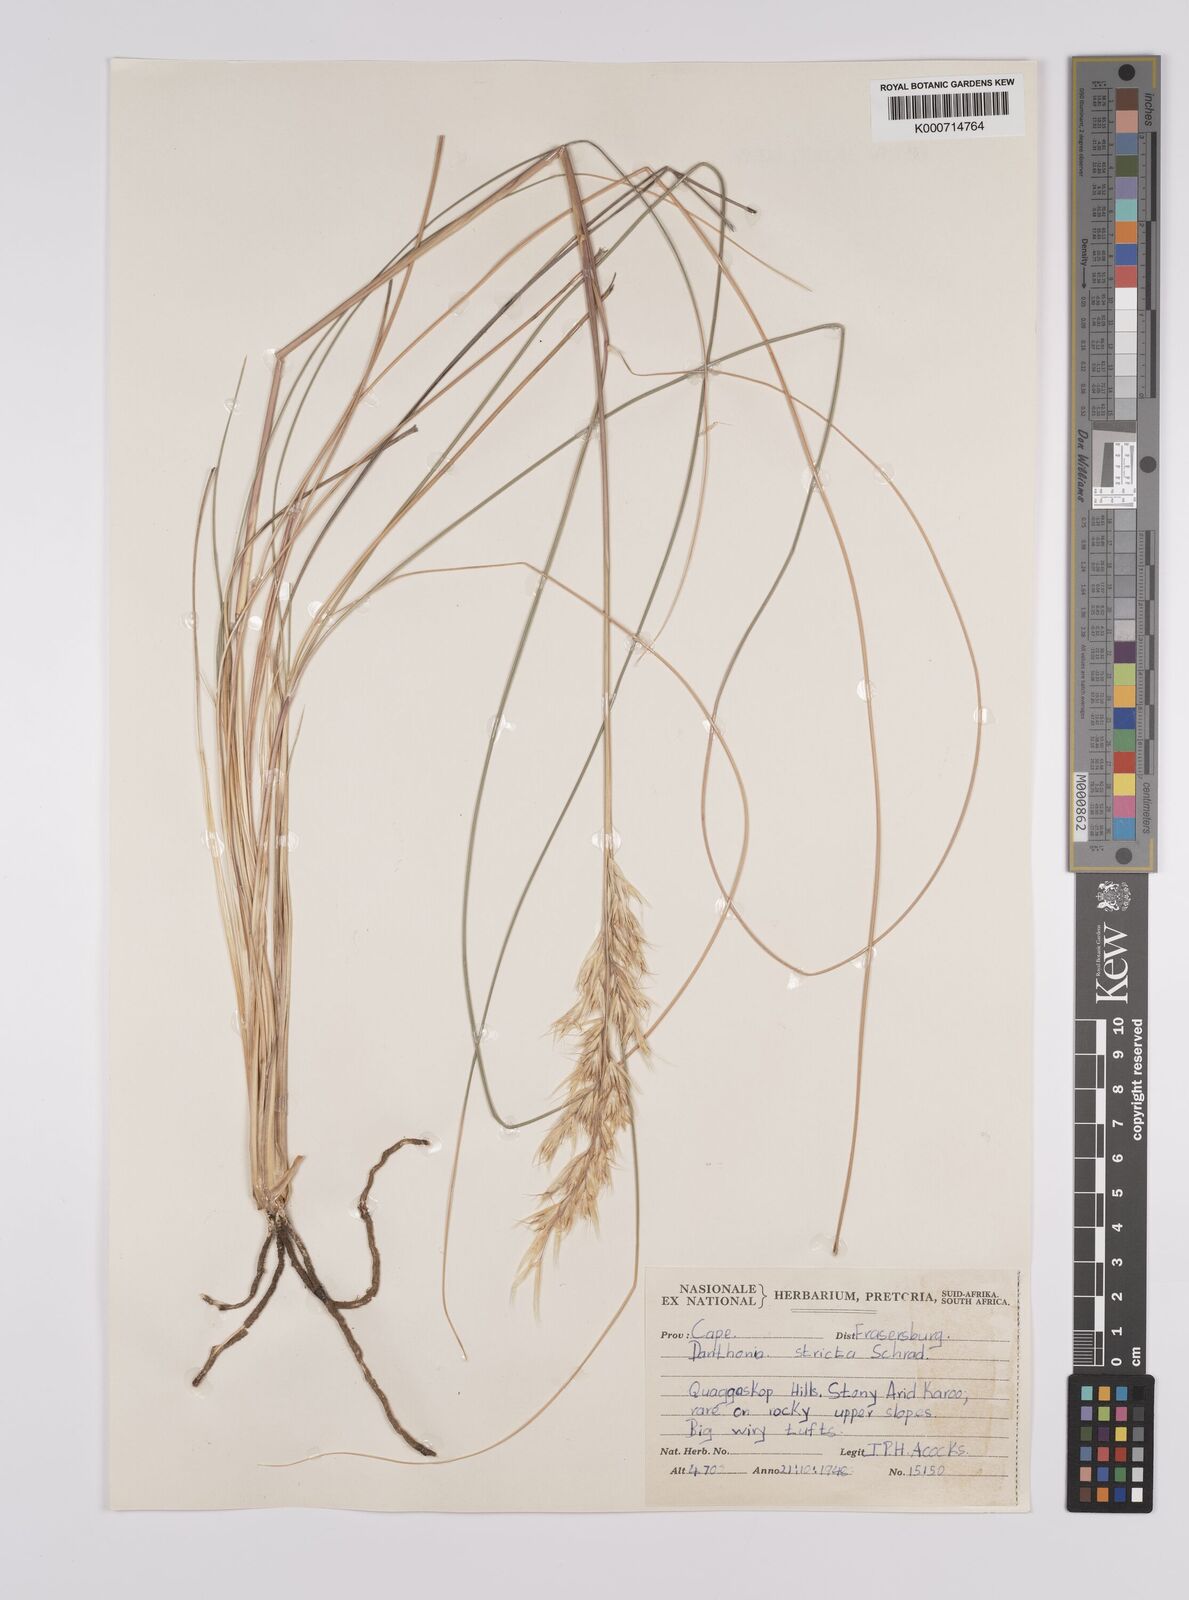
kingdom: Plantae
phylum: Tracheophyta
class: Liliopsida
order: Poales
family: Poaceae
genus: Rytidosperma
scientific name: Rytidosperma
